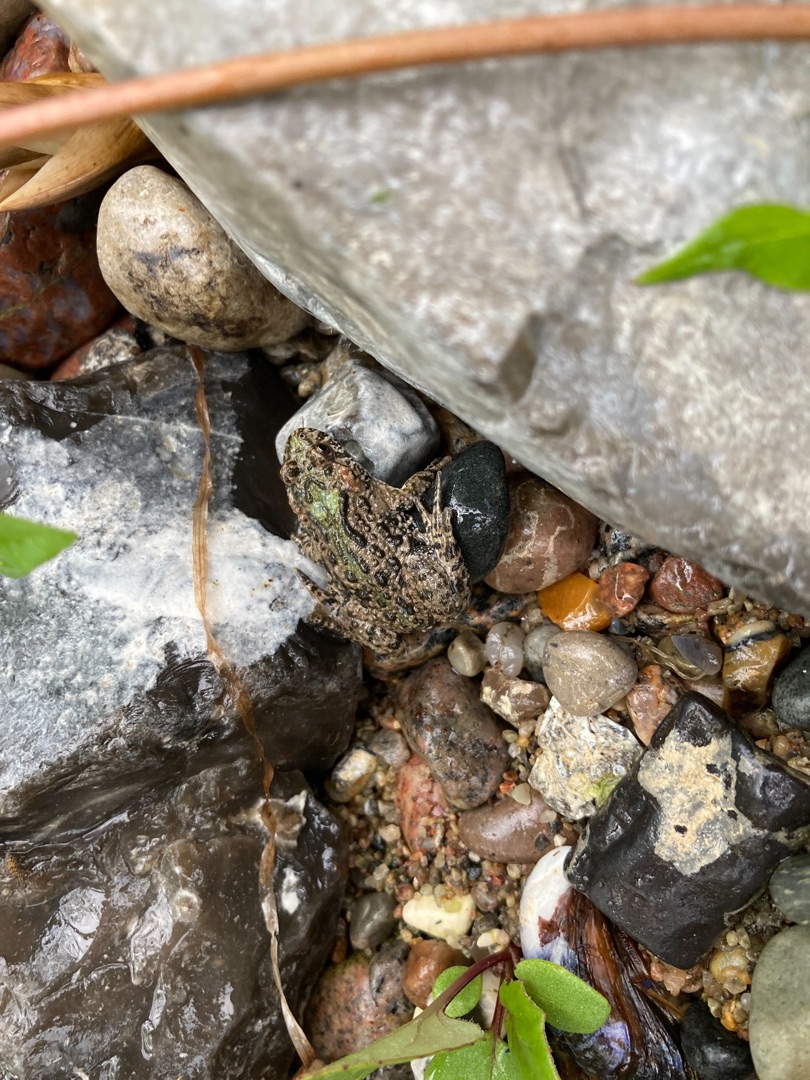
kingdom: Animalia
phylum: Chordata
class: Amphibia
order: Anura
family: Bombinatoridae
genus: Bombina
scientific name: Bombina bombina
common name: Klokkefrø
